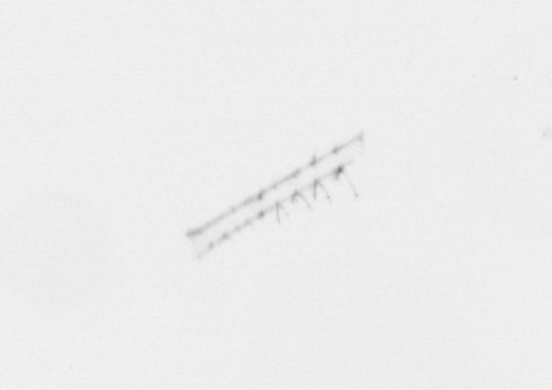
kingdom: Chromista
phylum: Ochrophyta
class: Bacillariophyceae
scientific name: Bacillariophyceae
